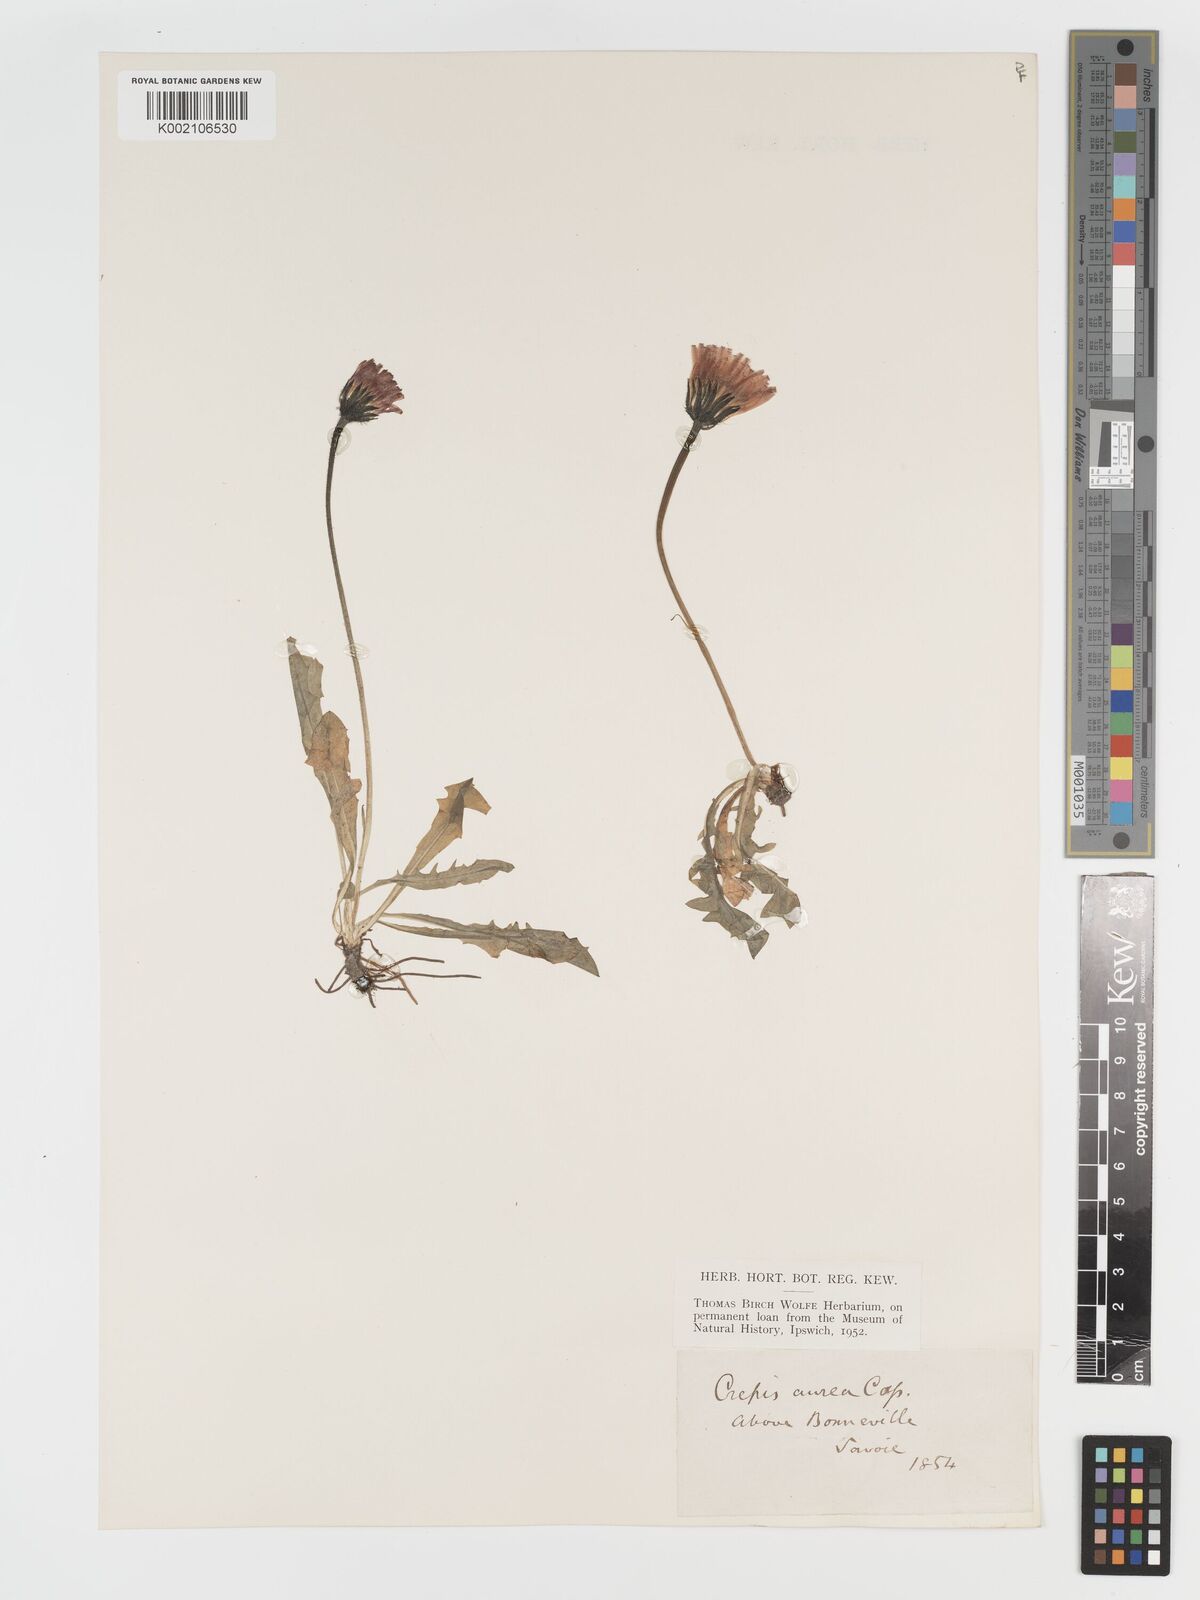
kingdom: Plantae
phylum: Tracheophyta
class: Magnoliopsida
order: Asterales
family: Asteraceae
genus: Crepis
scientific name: Crepis aurea
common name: Golden hawk's-beard
